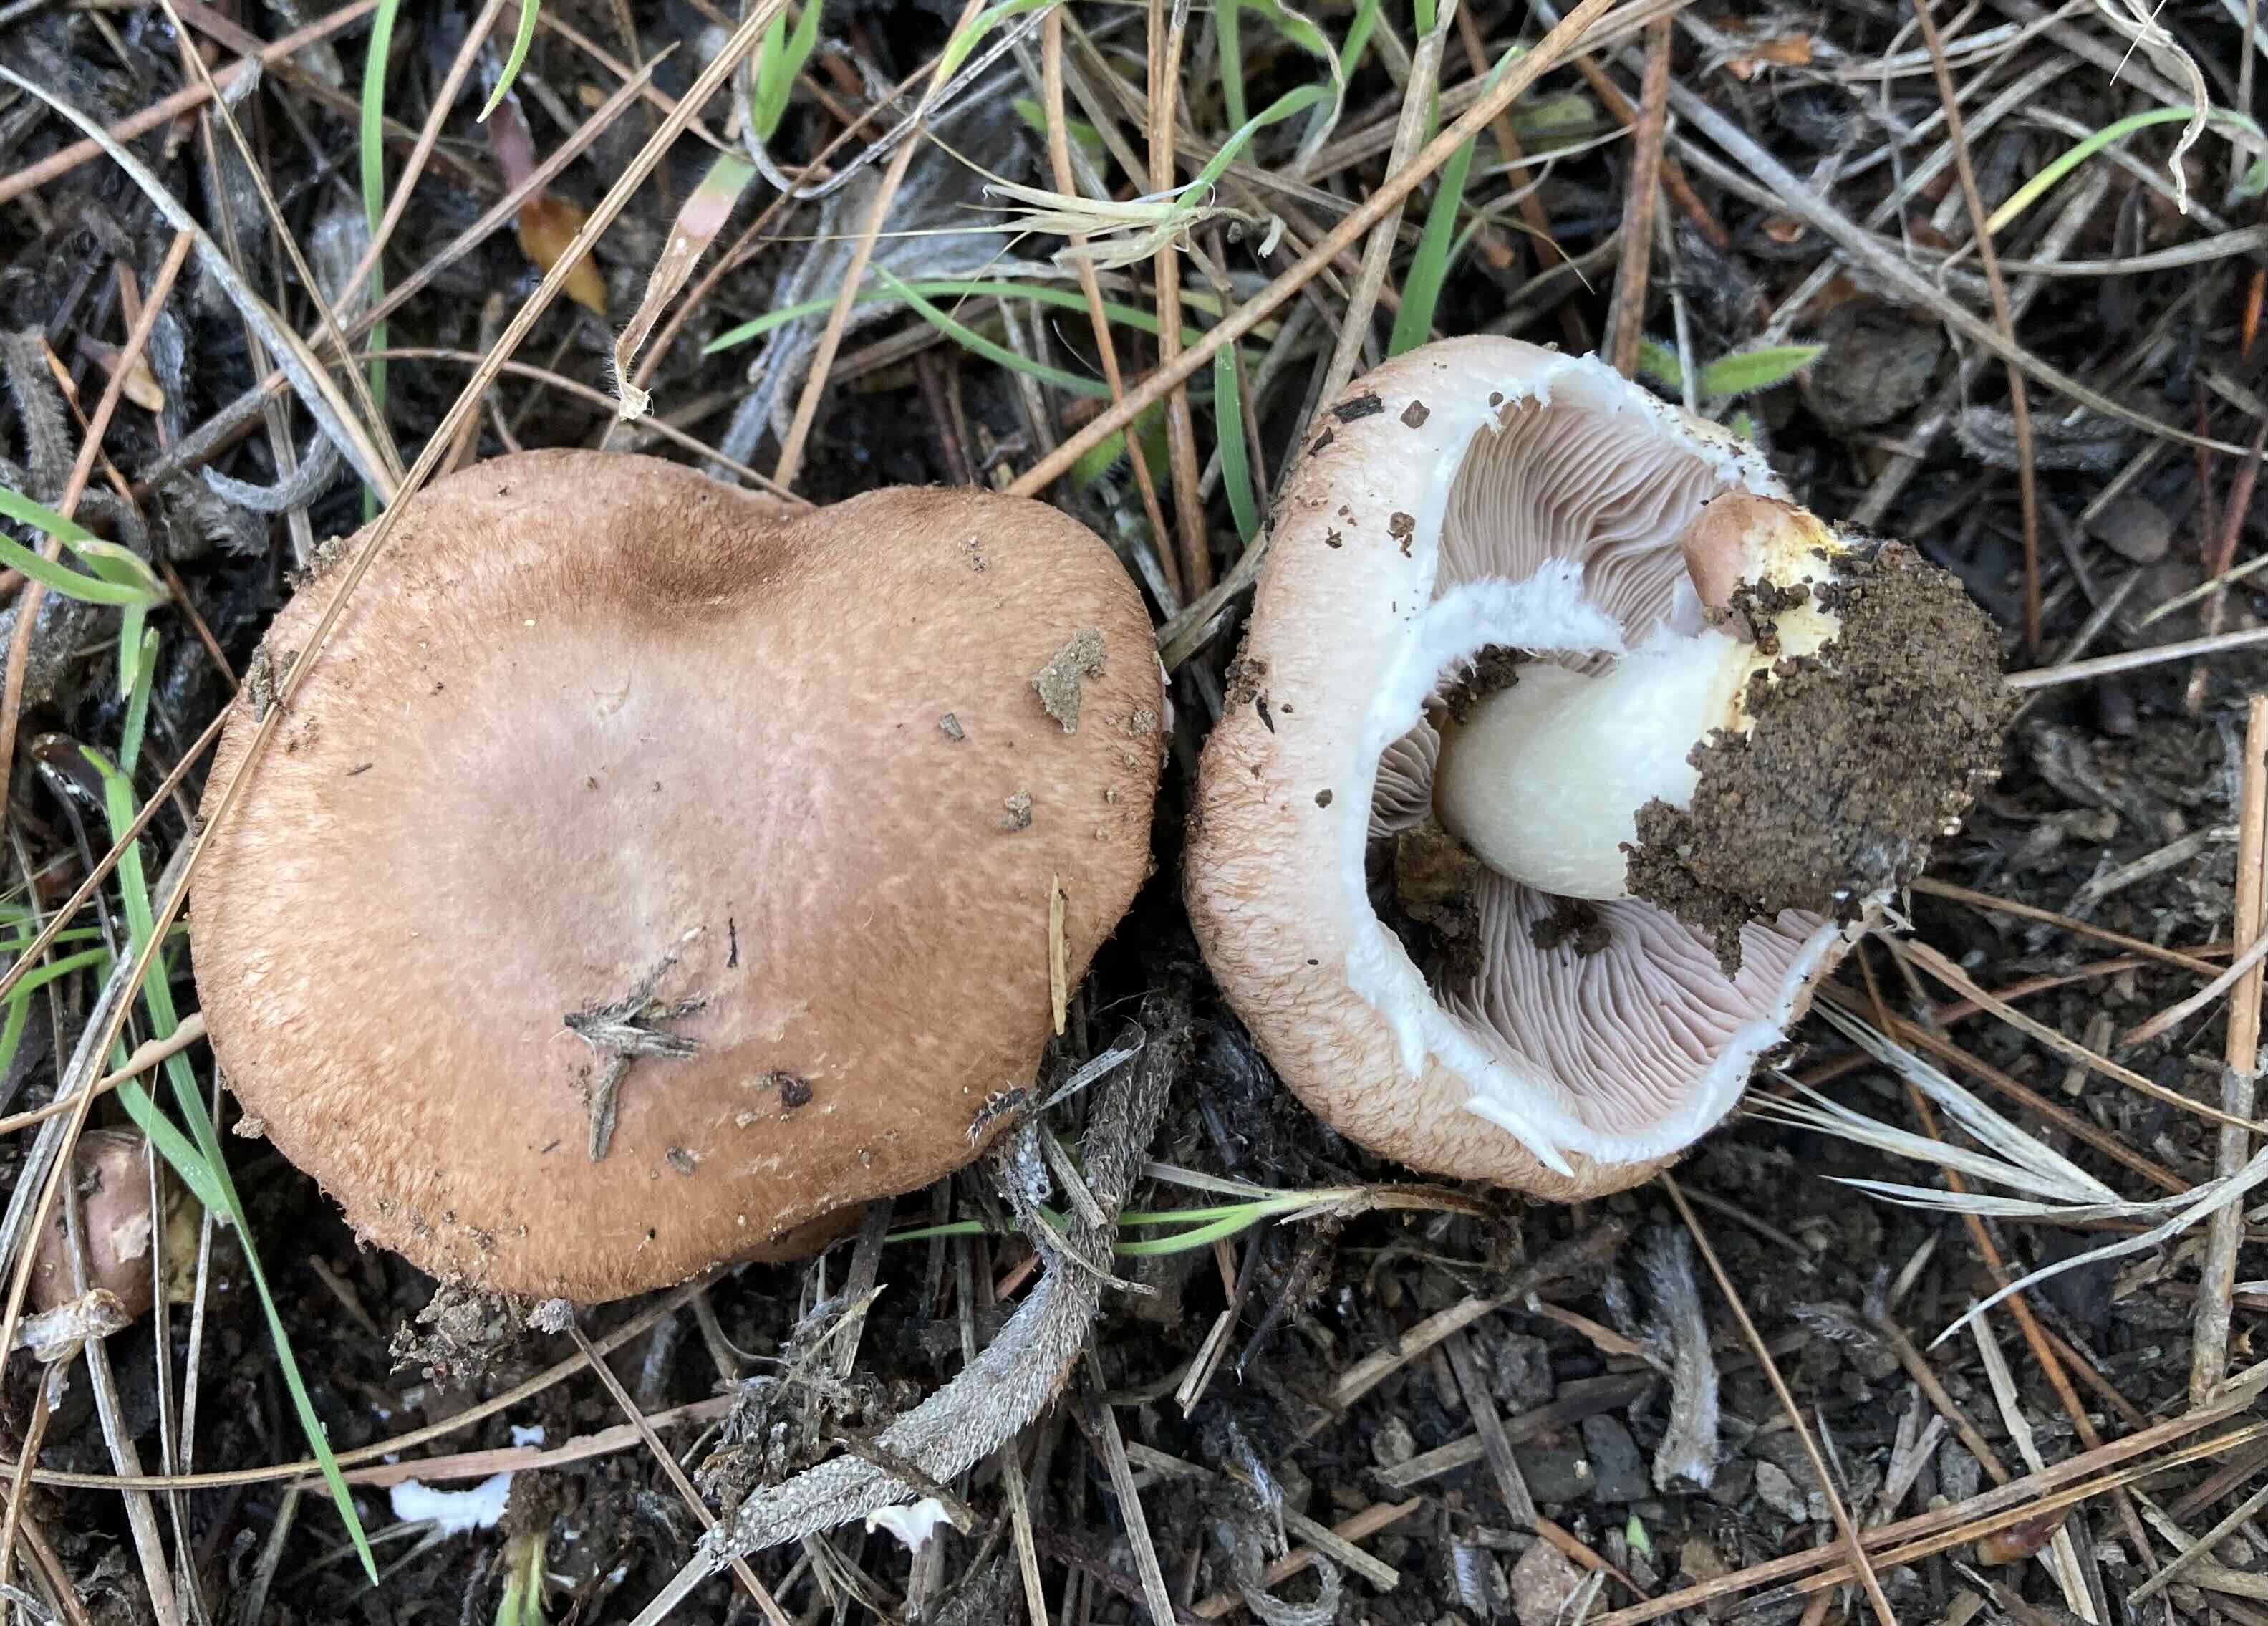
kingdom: Fungi
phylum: Basidiomycota
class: Agaricomycetes
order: Agaricales
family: Agaricaceae
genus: Agaricus
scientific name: Agaricus
